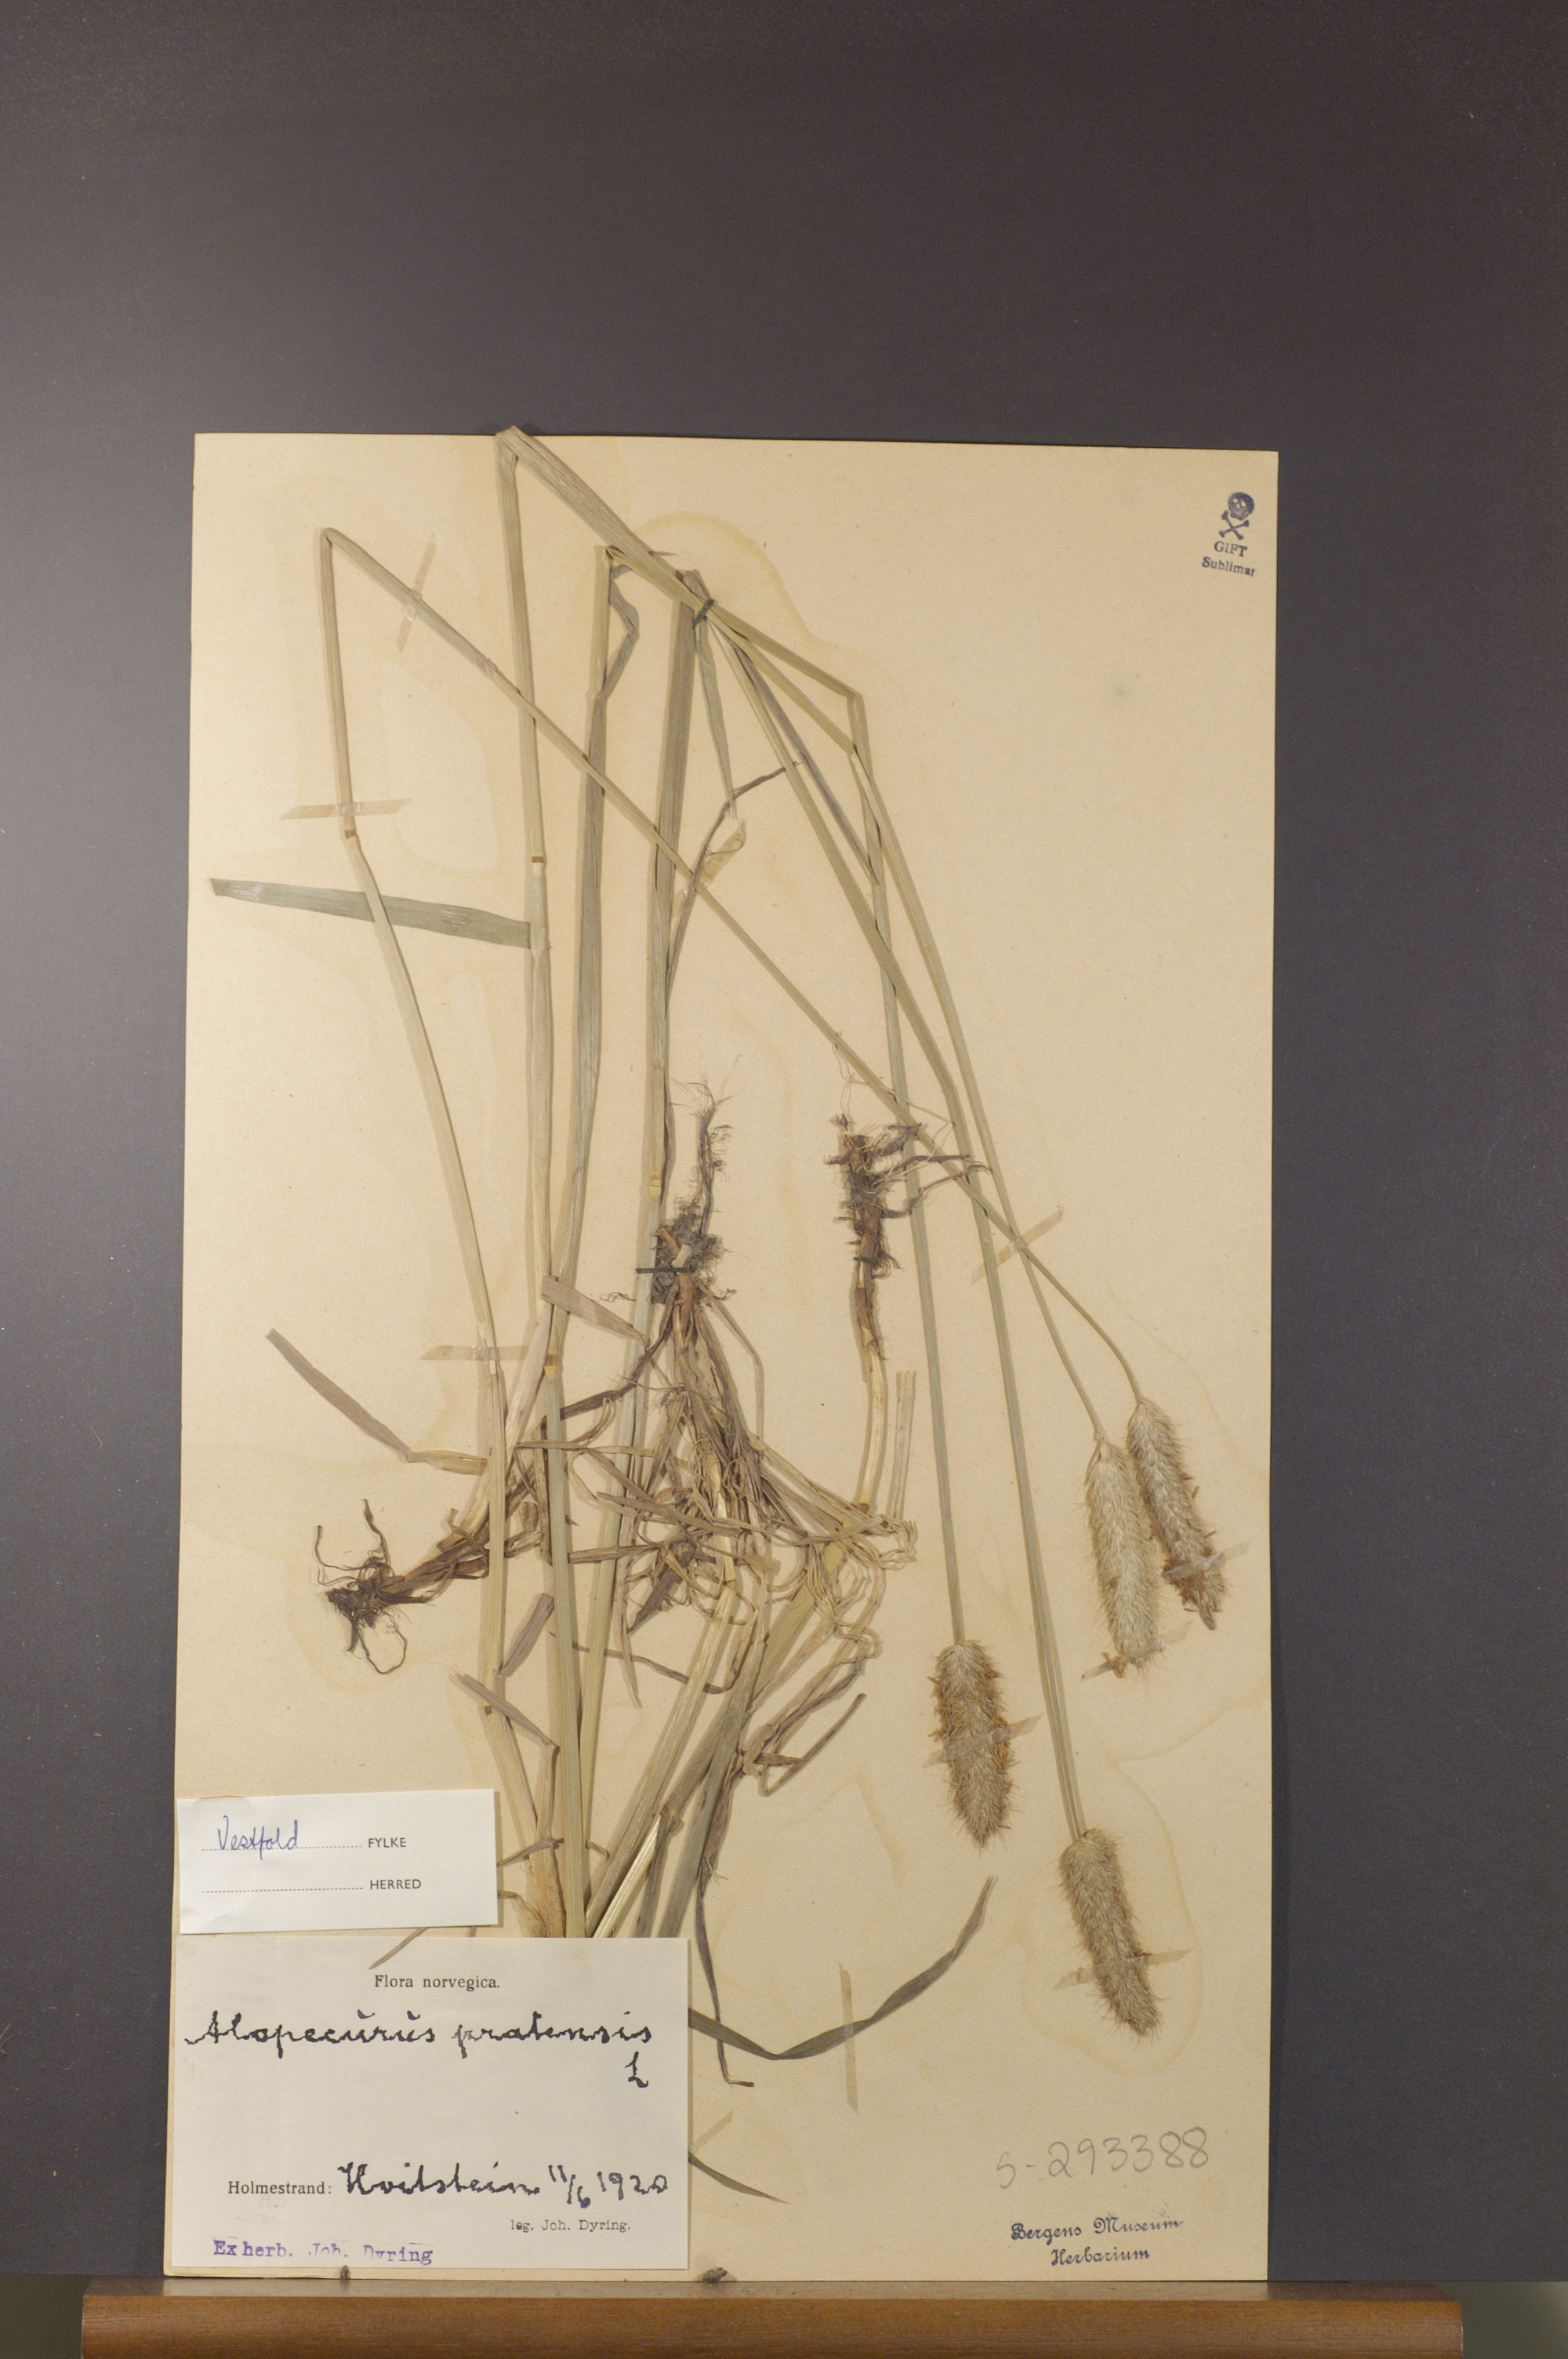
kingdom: Plantae
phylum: Tracheophyta
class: Liliopsida
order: Poales
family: Poaceae
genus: Alopecurus
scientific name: Alopecurus pratensis
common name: Meadow foxtail
